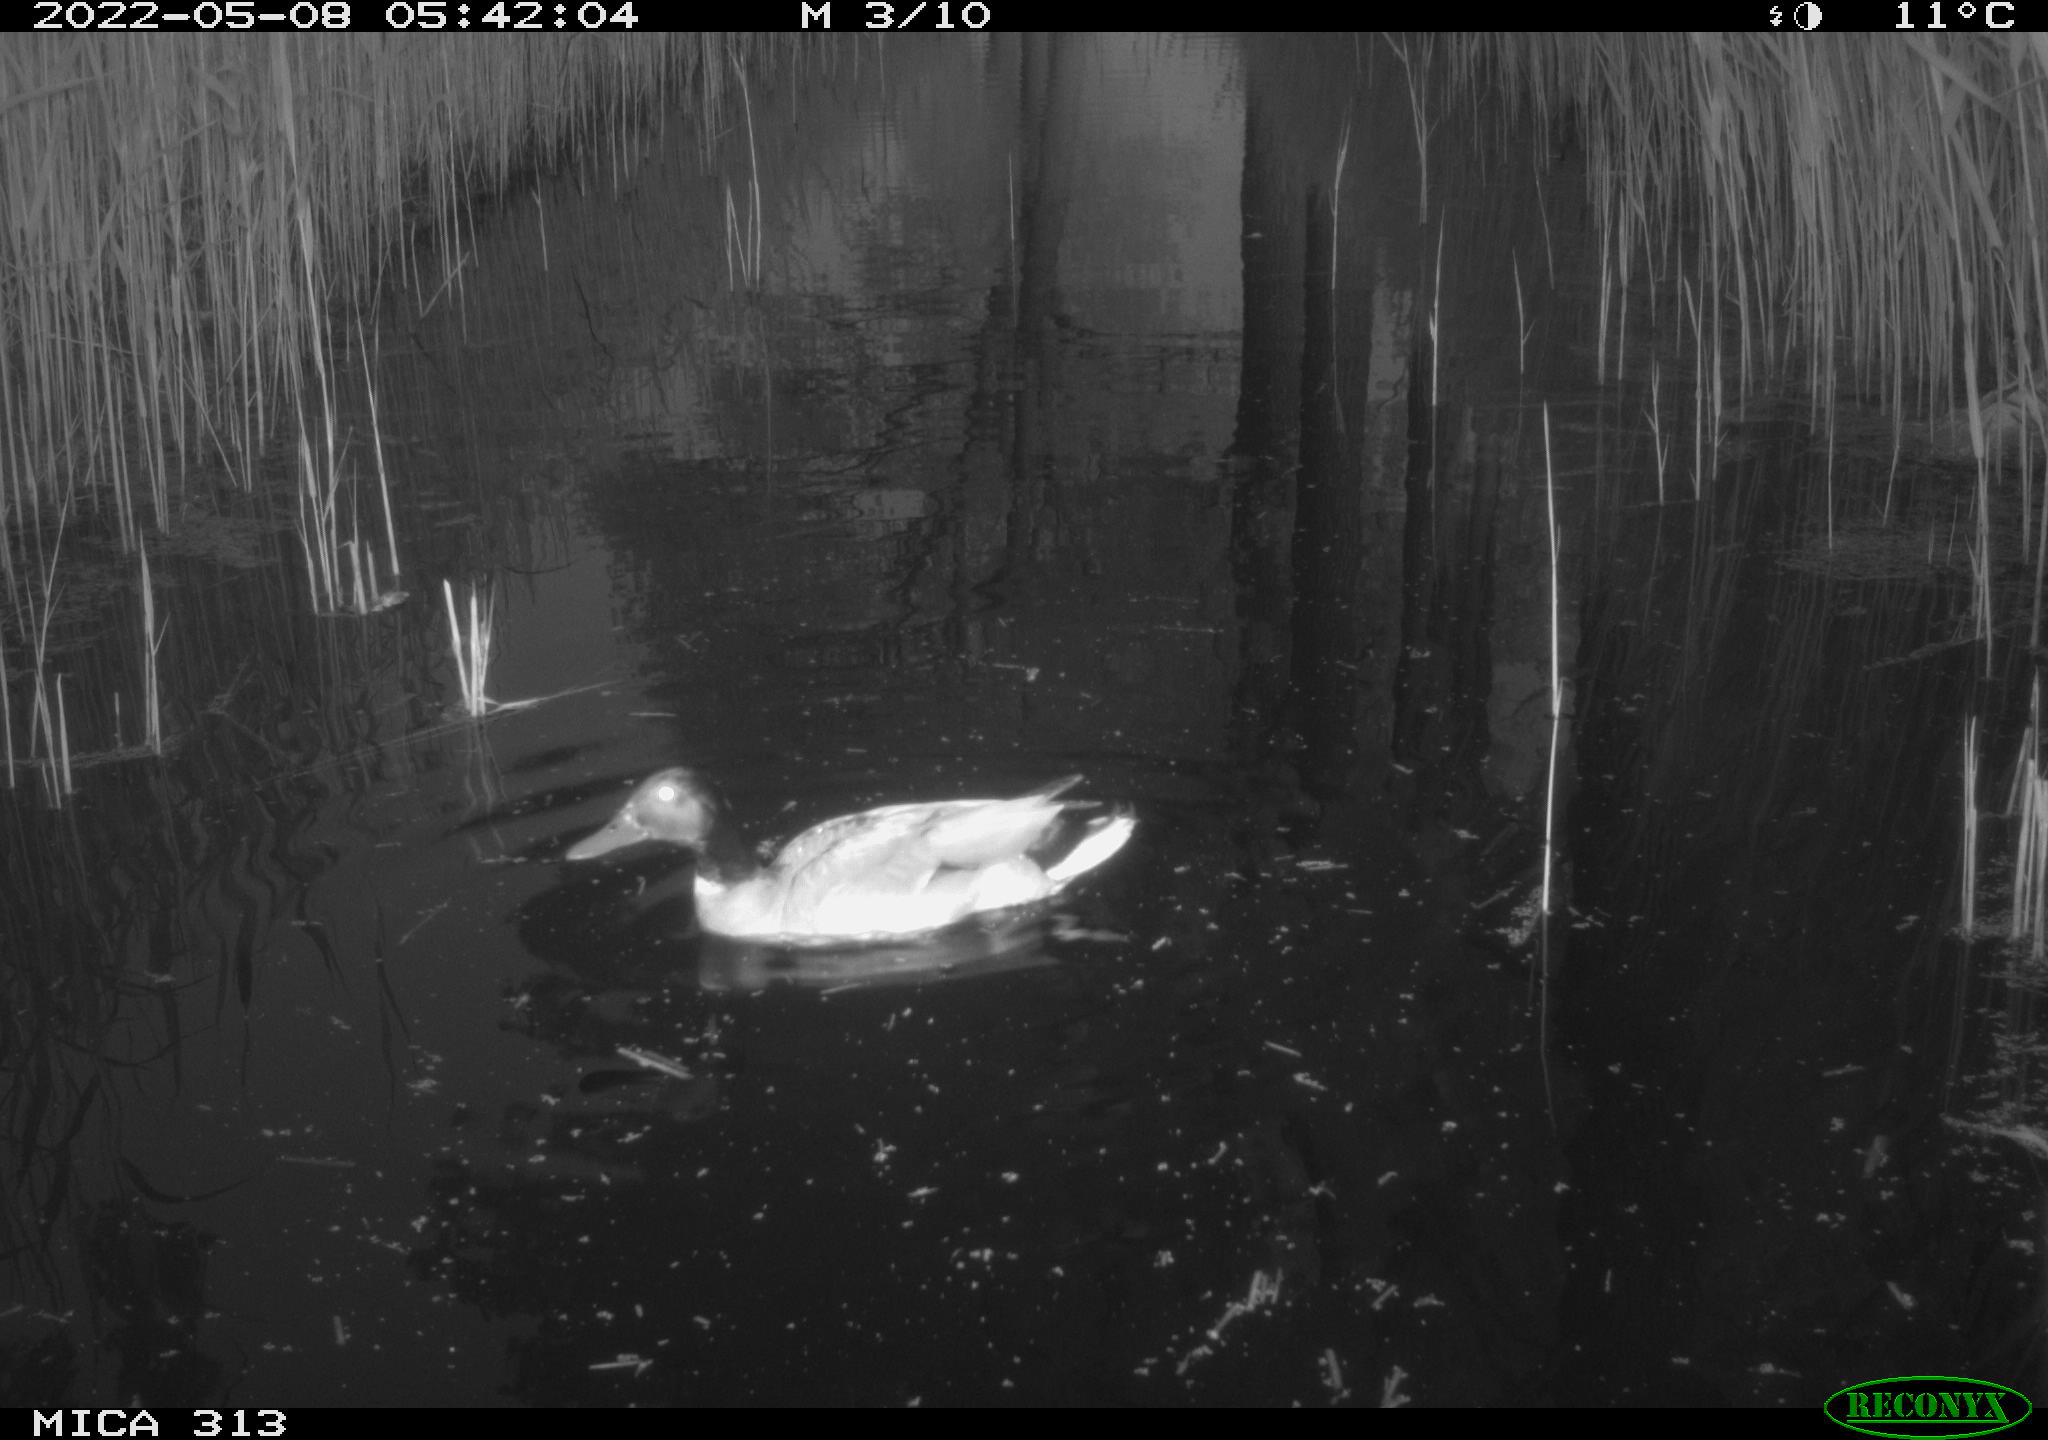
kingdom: Animalia
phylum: Chordata
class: Aves
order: Anseriformes
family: Anatidae
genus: Mareca
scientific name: Mareca strepera
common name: Gadwall
